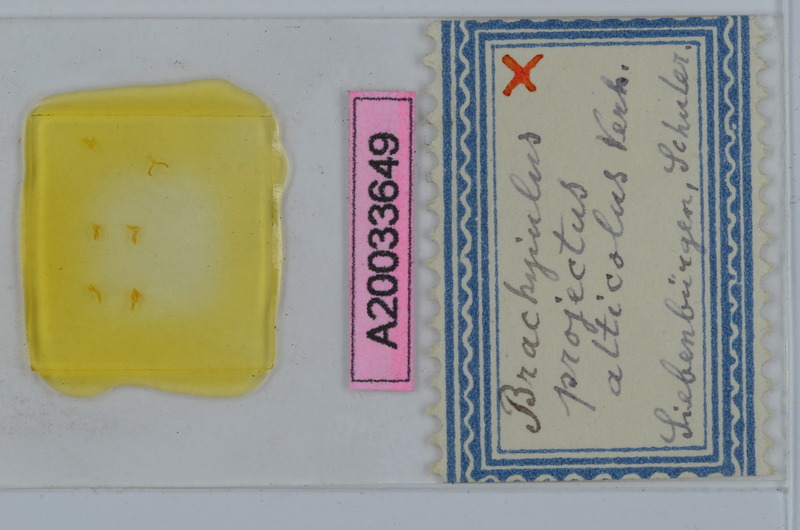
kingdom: Animalia
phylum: Arthropoda
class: Diplopoda
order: Julida
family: Julidae
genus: Megaphyllum
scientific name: Megaphyllum projectum
